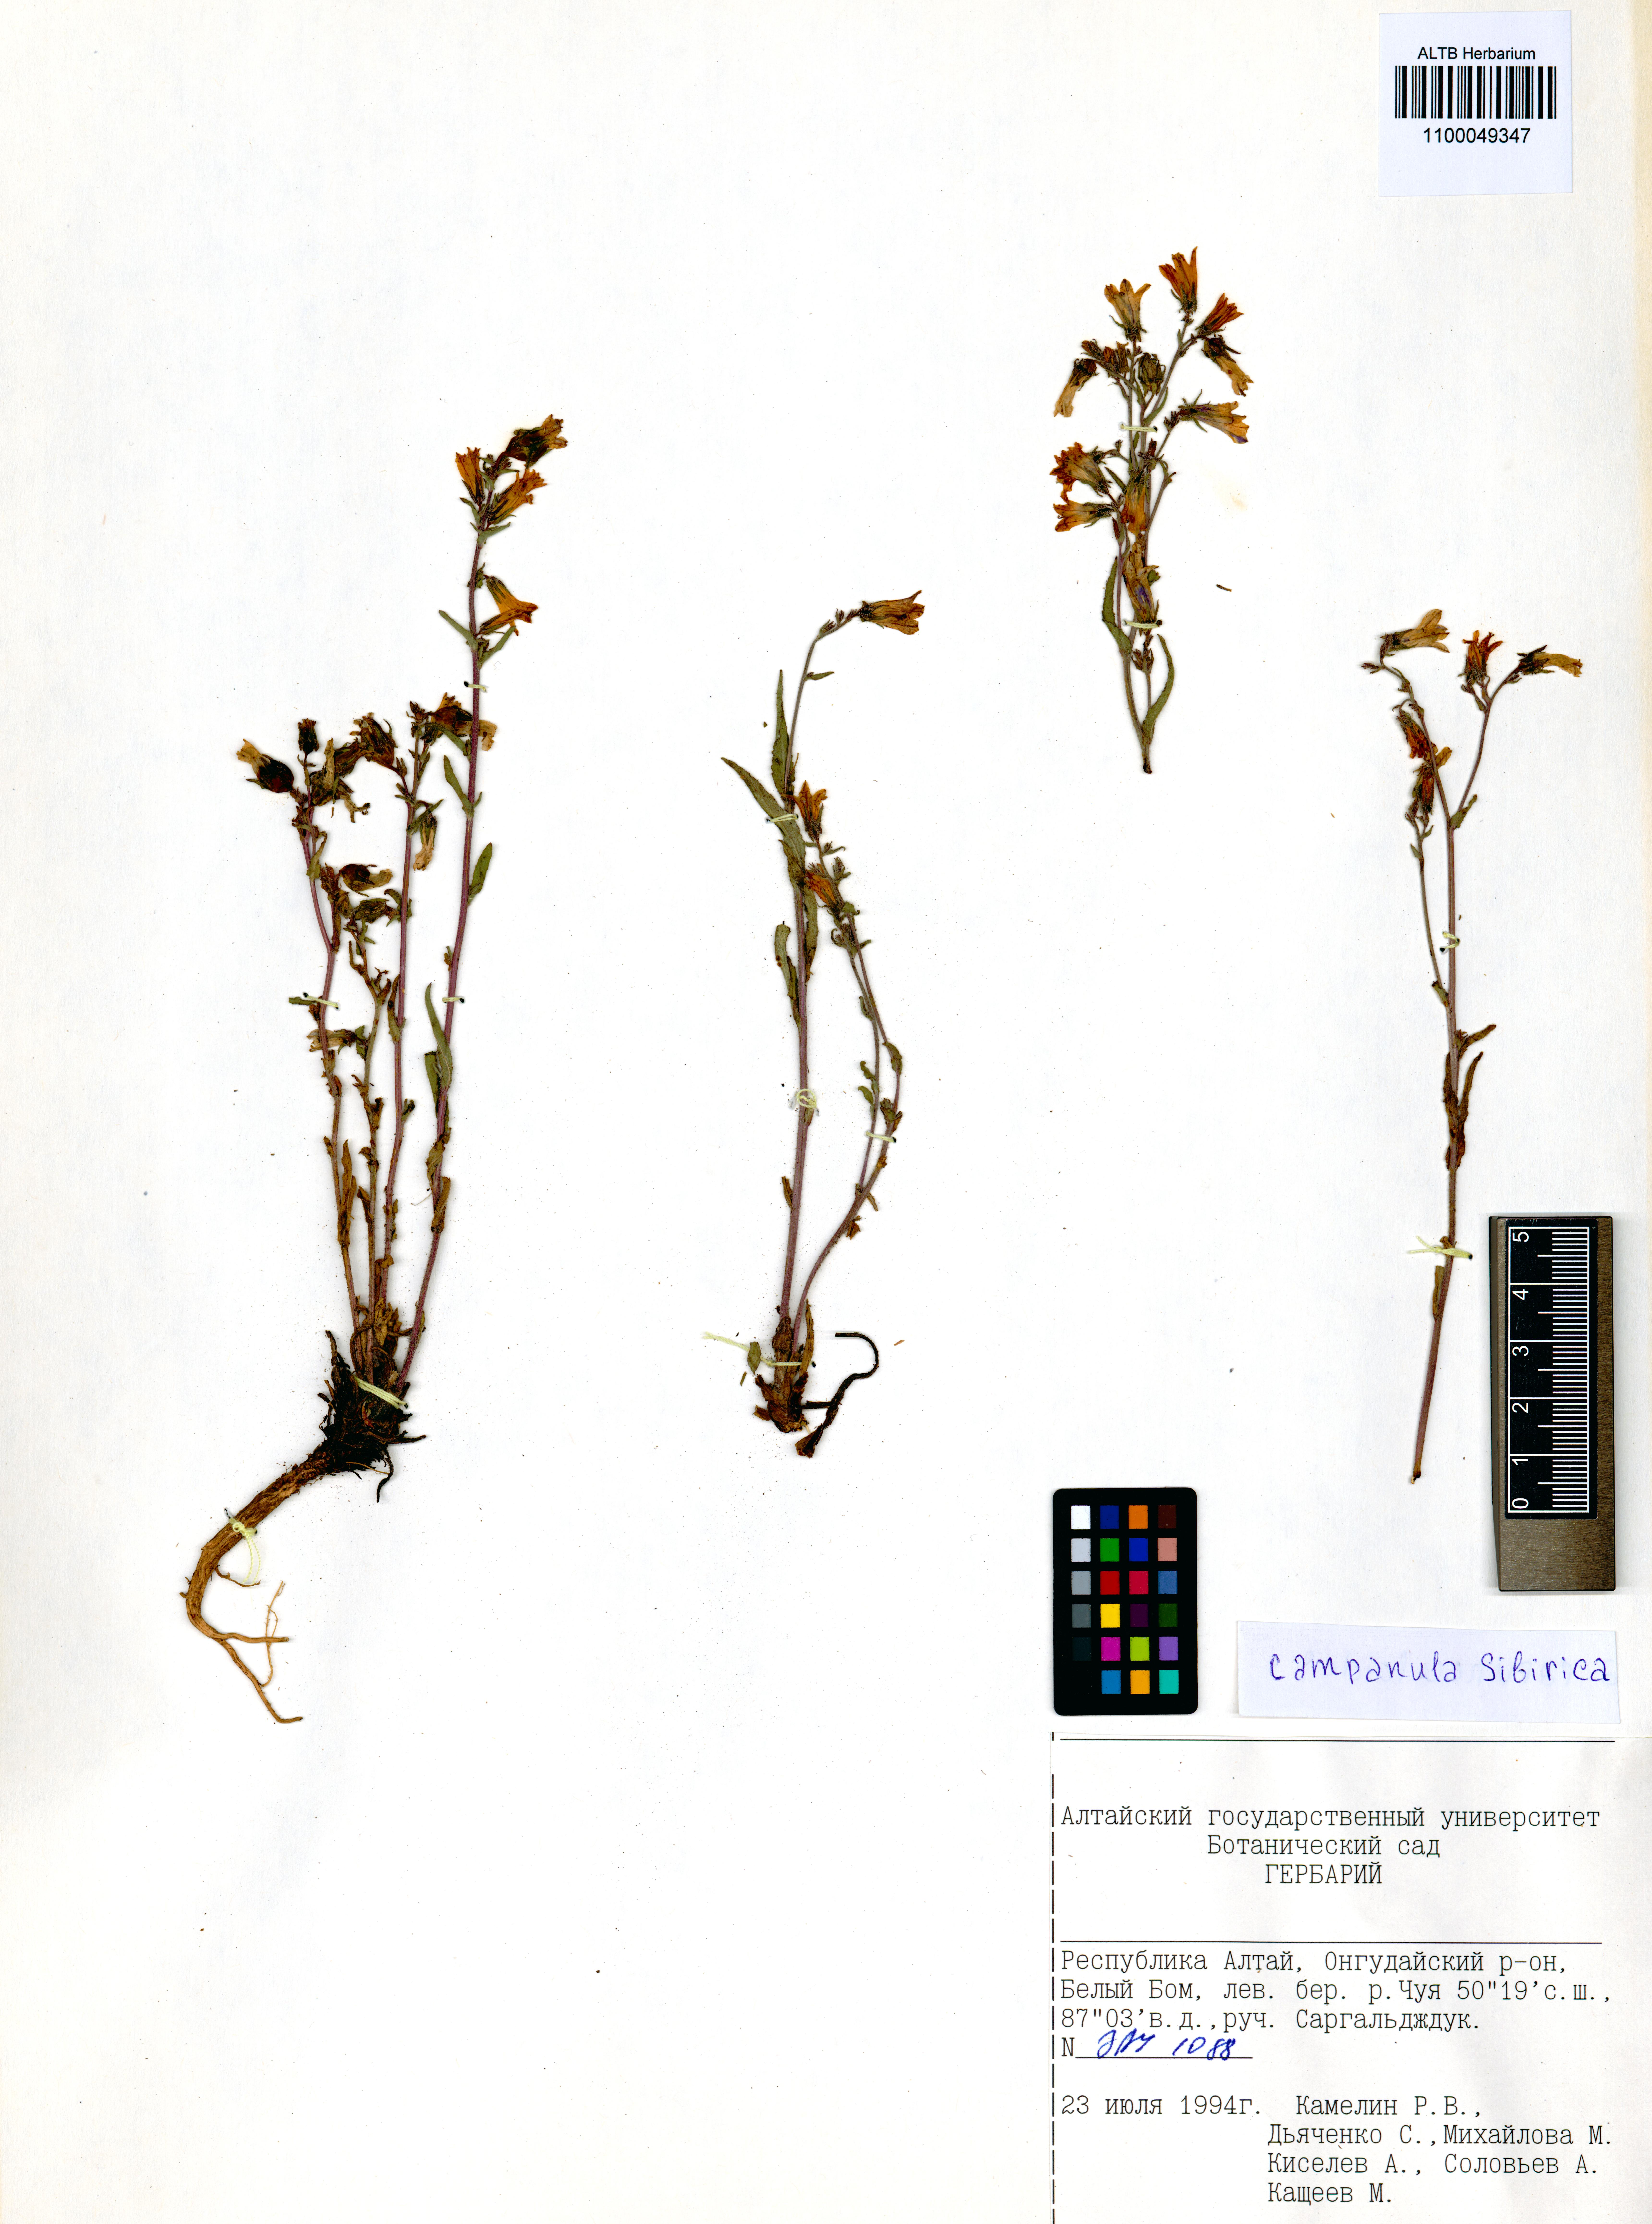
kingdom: Plantae
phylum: Tracheophyta
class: Magnoliopsida
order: Asterales
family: Campanulaceae
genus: Campanula
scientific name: Campanula sibirica
